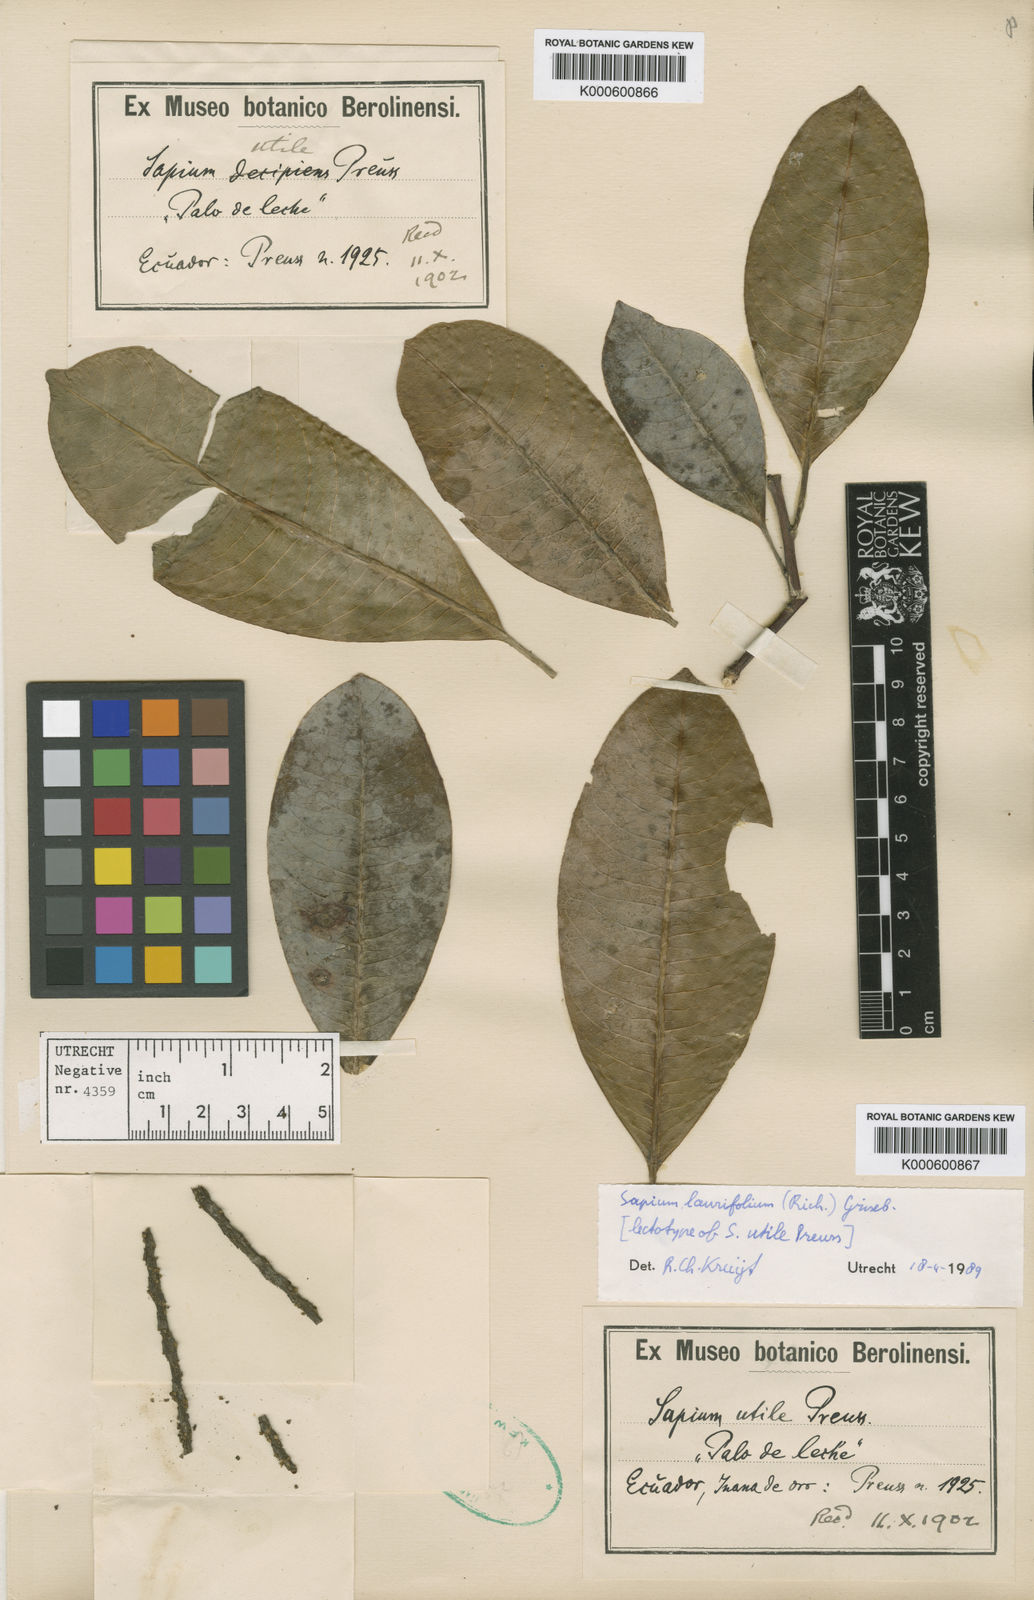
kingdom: Plantae
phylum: Tracheophyta
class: Magnoliopsida
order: Malpighiales
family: Euphorbiaceae
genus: Sapium
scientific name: Sapium
